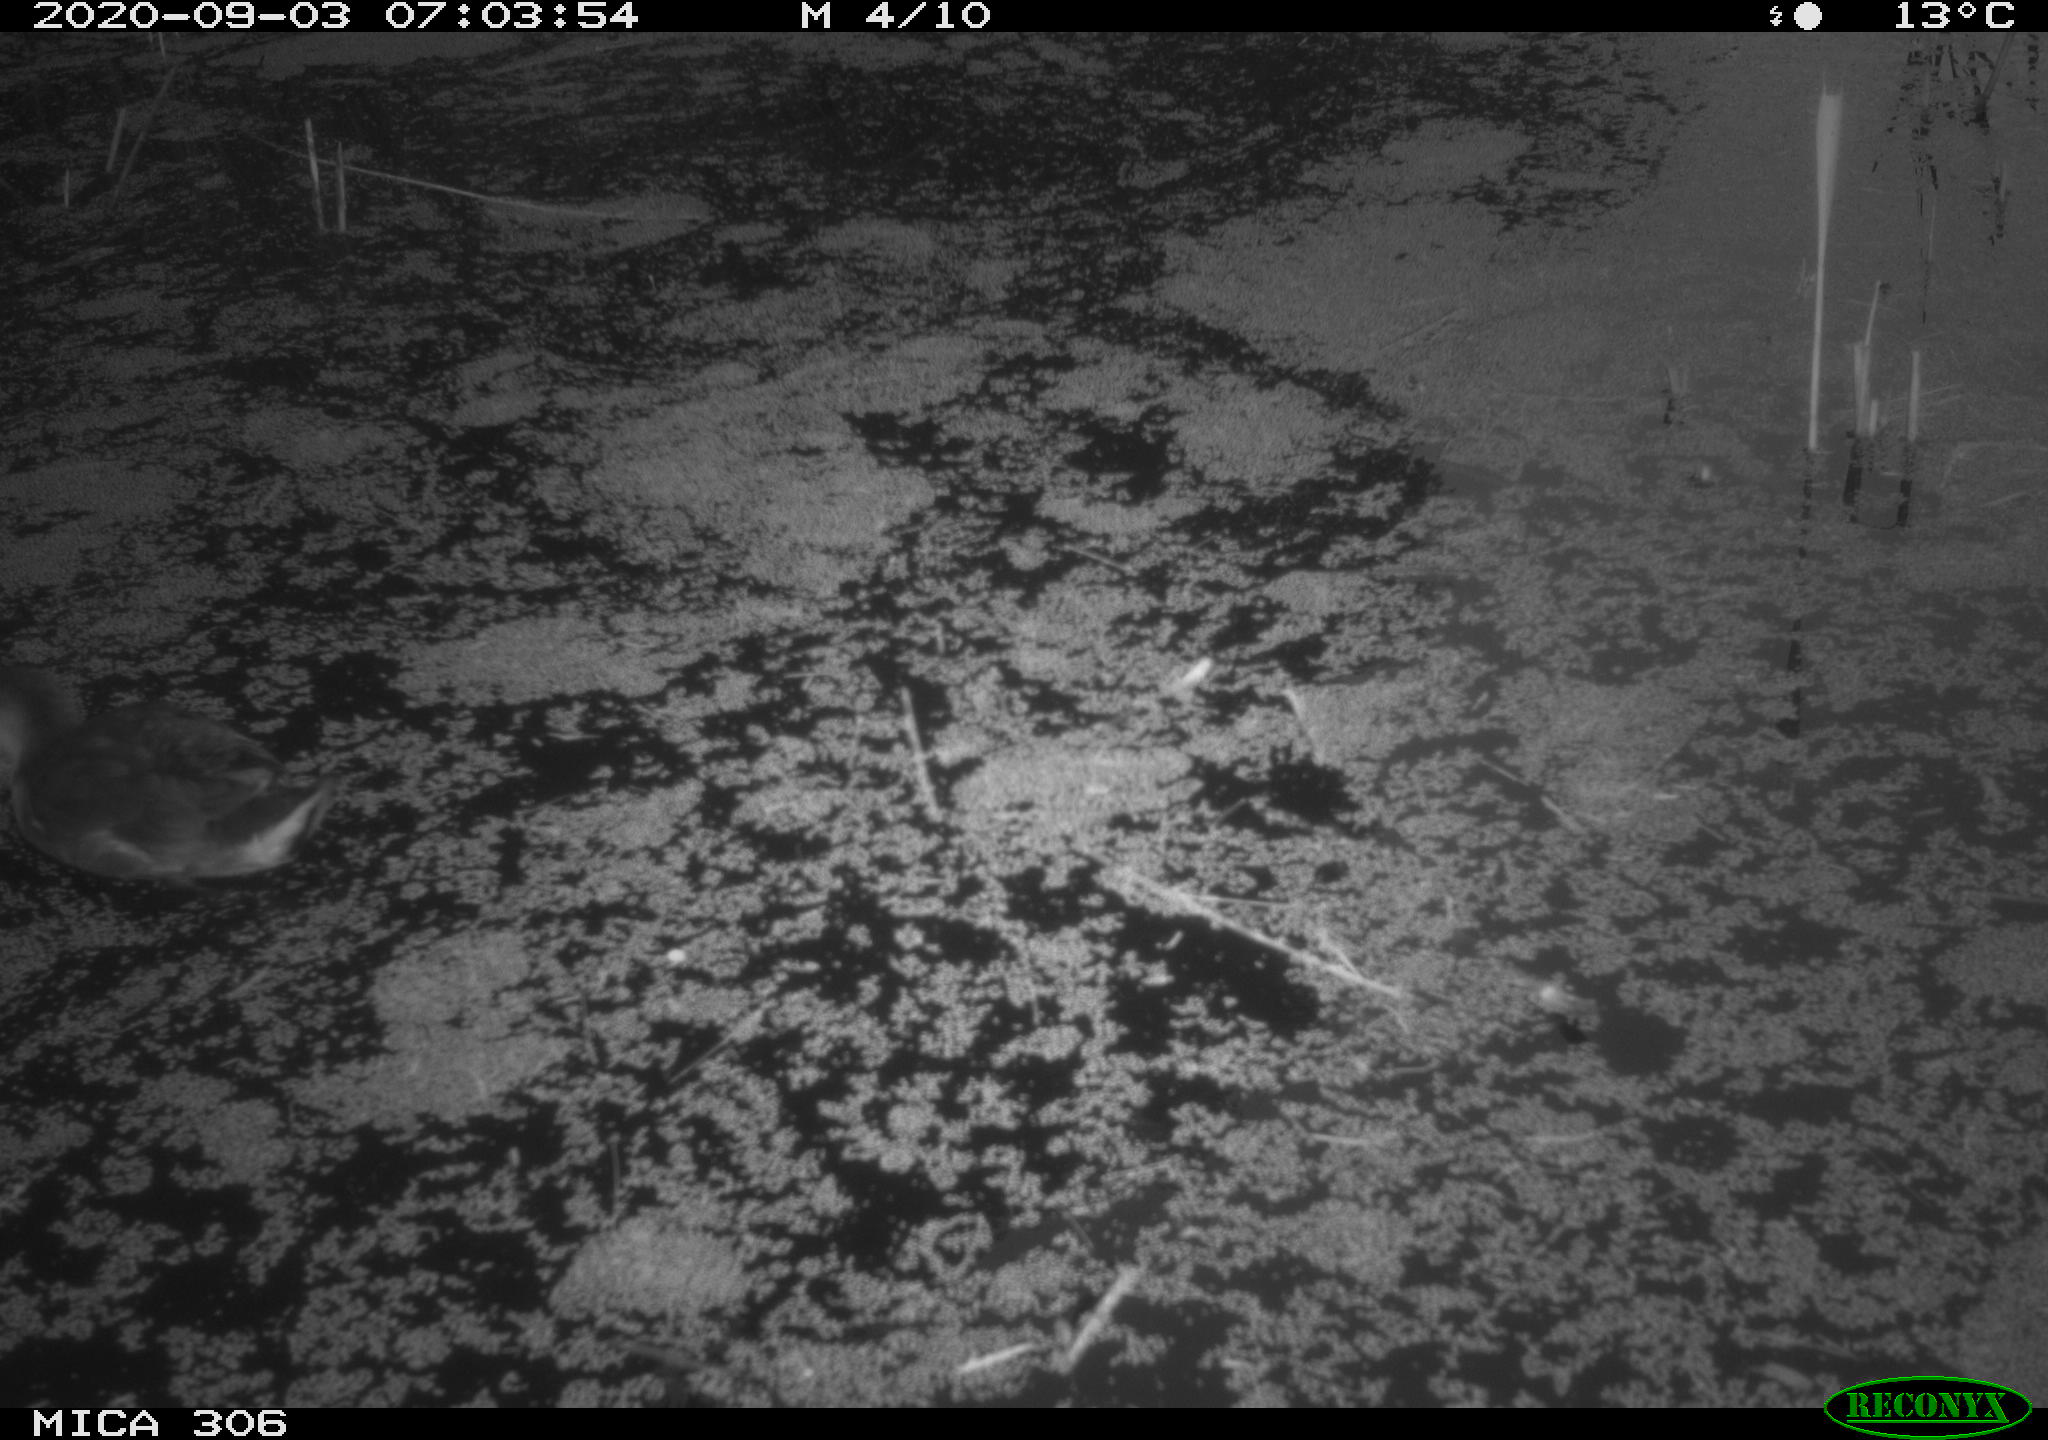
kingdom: Animalia
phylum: Chordata
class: Aves
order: Gruiformes
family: Rallidae
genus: Gallinula
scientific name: Gallinula chloropus
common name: Common moorhen
